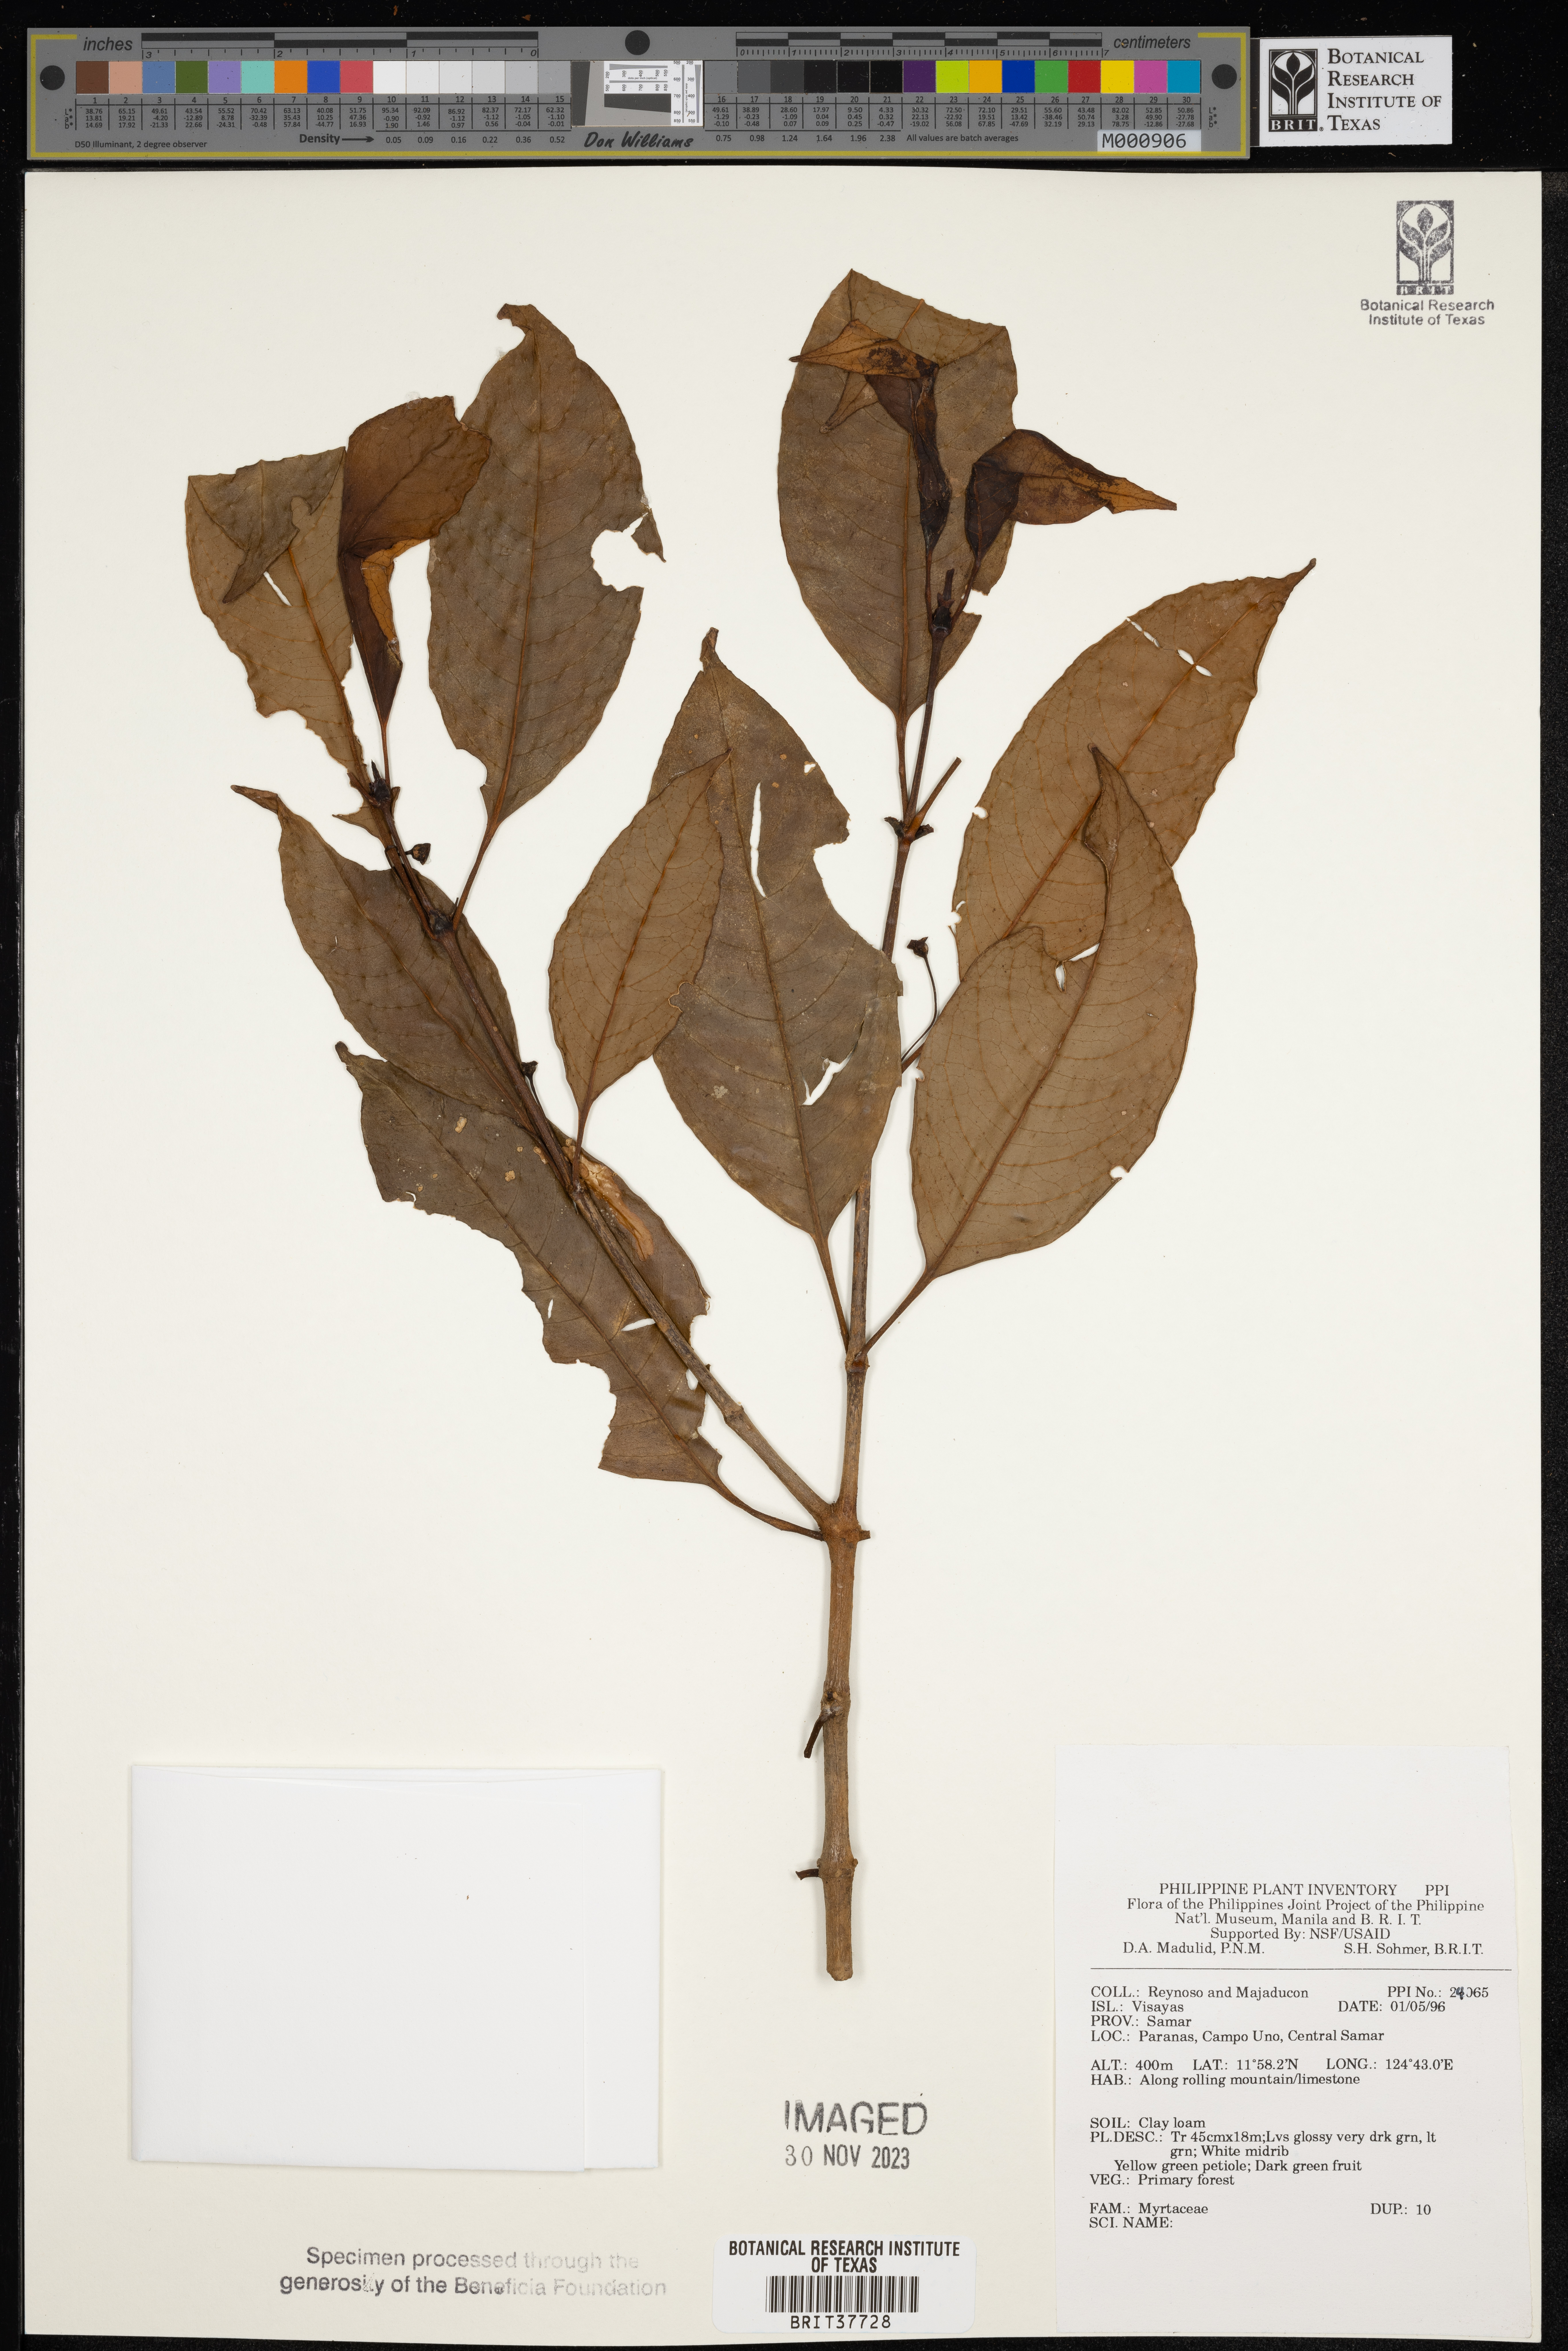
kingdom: Plantae
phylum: Tracheophyta
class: Magnoliopsida
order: Myrtales
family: Myrtaceae
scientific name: Myrtaceae
